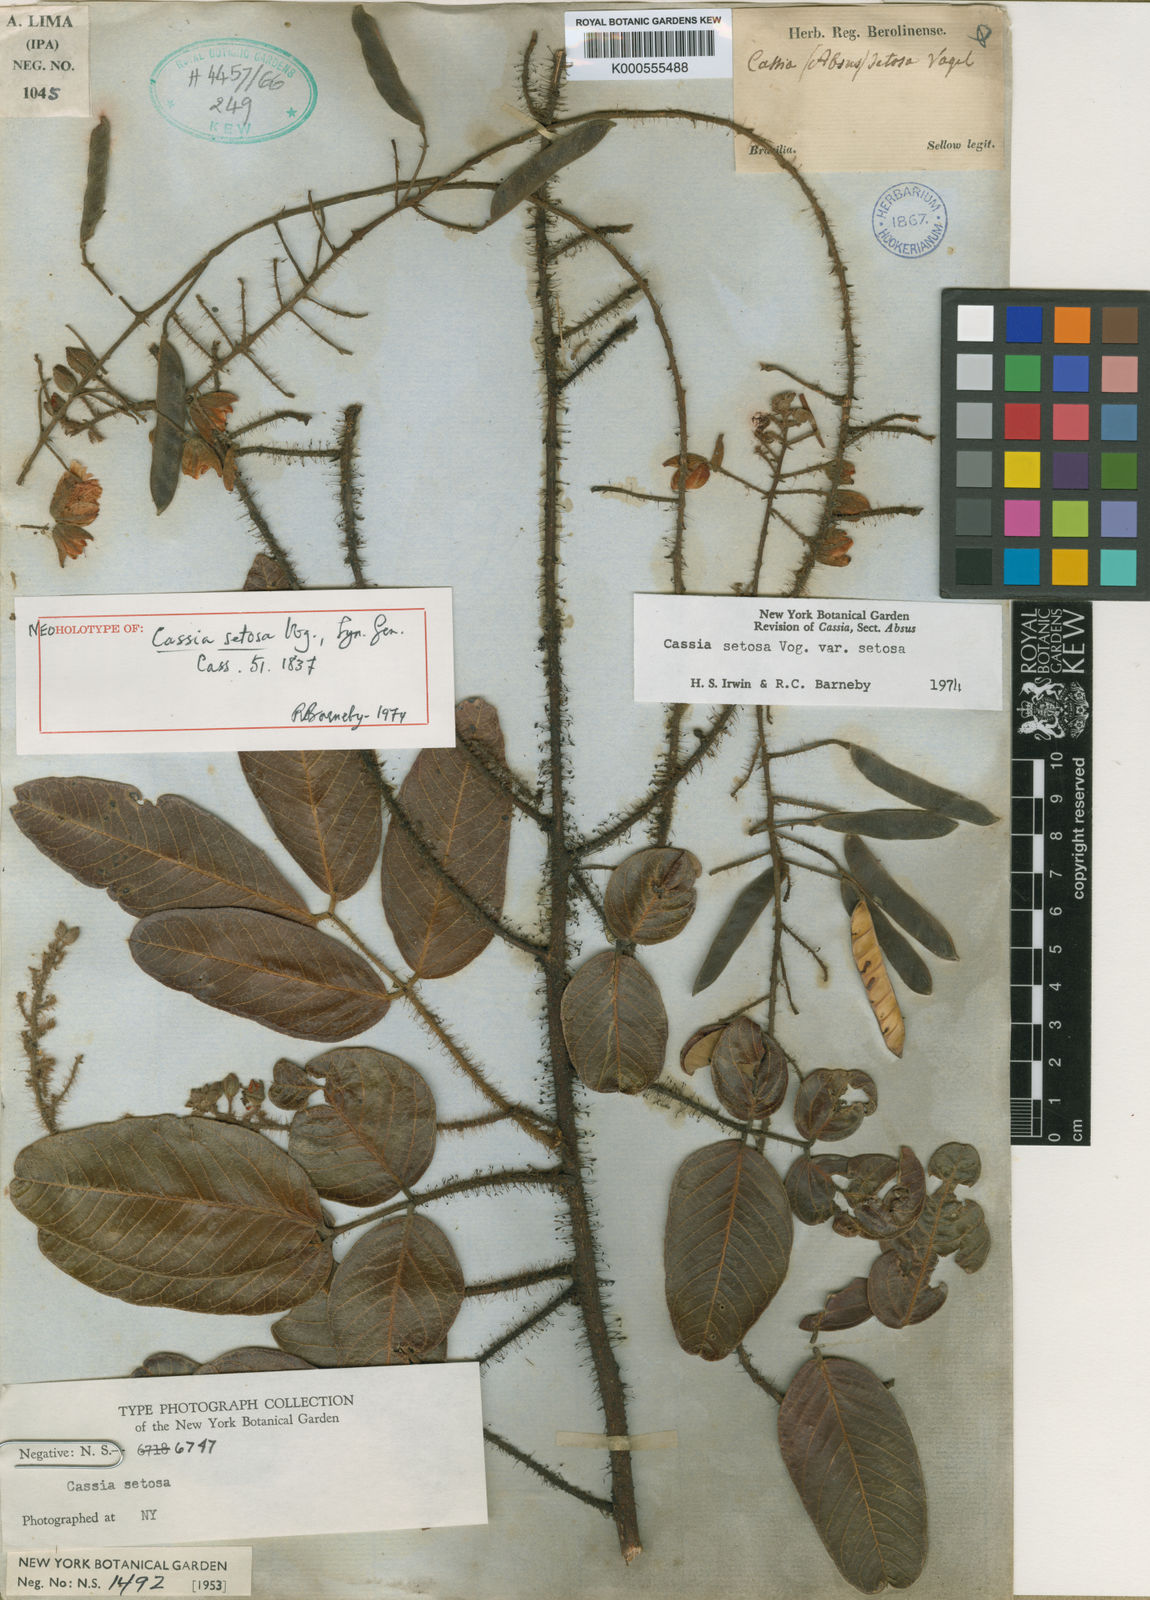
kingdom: Plantae
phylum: Tracheophyta
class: Magnoliopsida
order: Fabales
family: Fabaceae
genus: Chamaecrista
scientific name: Chamaecrista setosa
